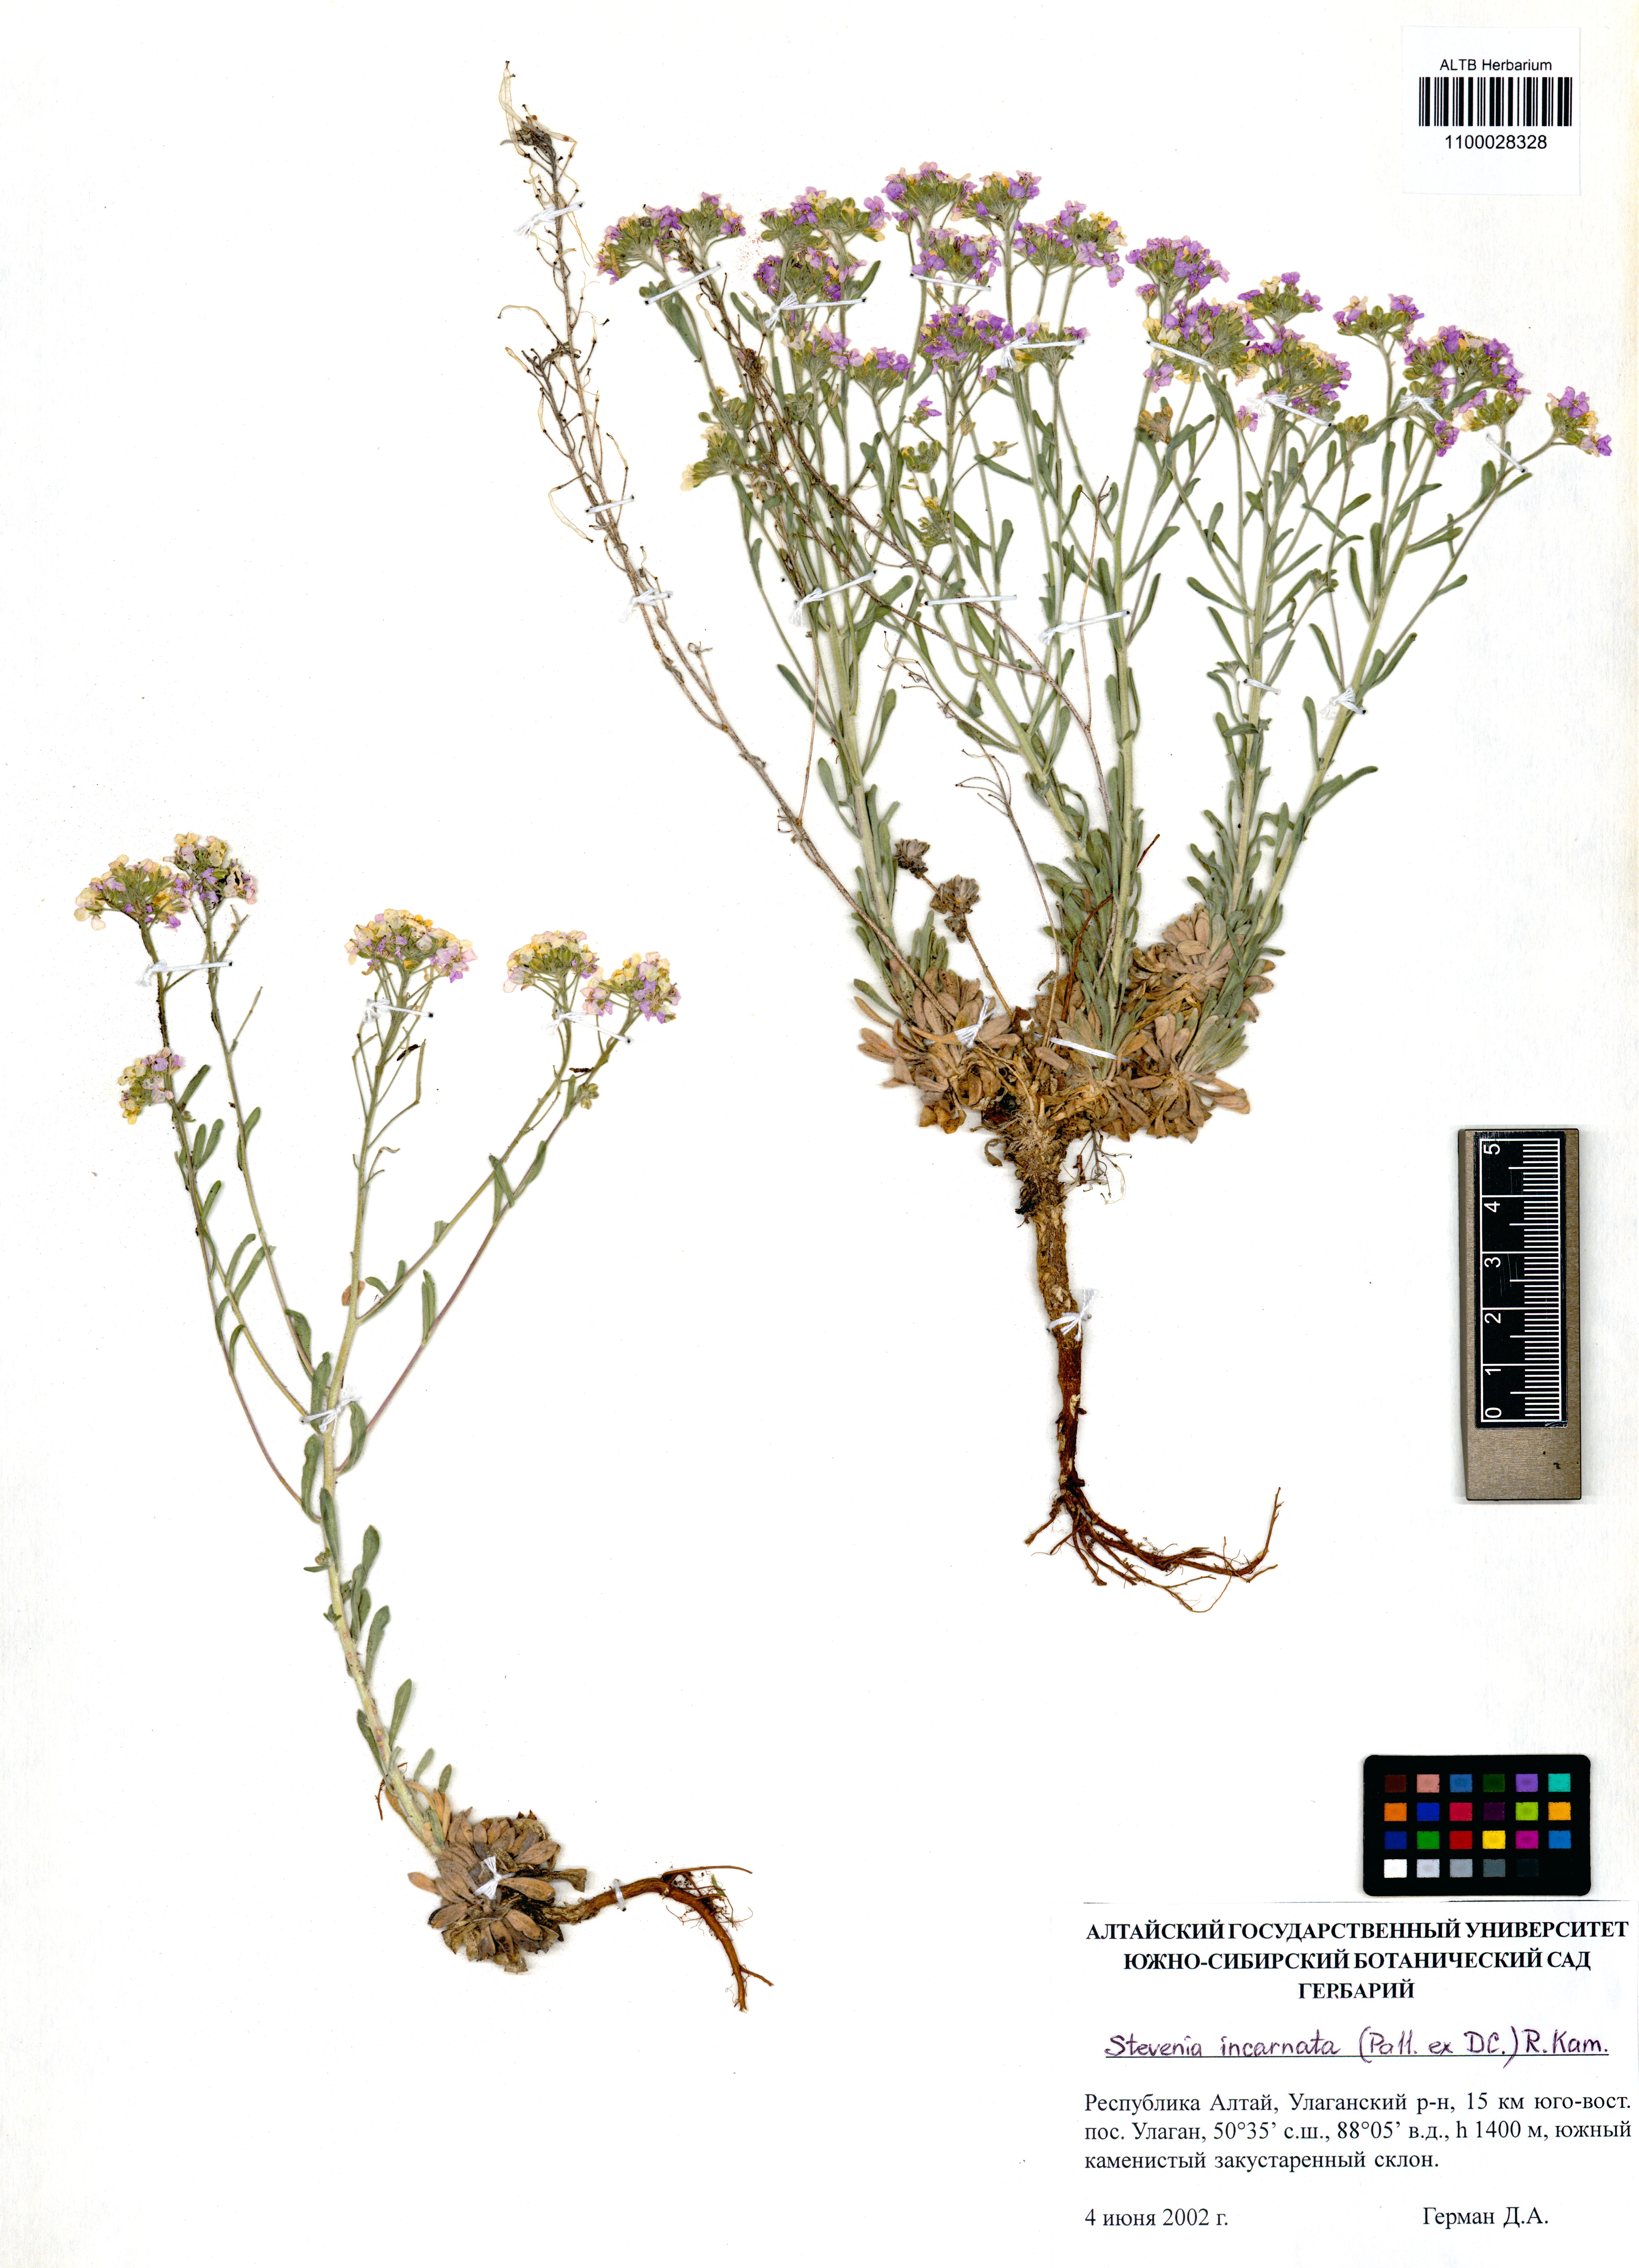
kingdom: Plantae
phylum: Tracheophyta
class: Magnoliopsida
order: Brassicales
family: Brassicaceae
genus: Stevenia
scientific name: Stevenia incarnata
